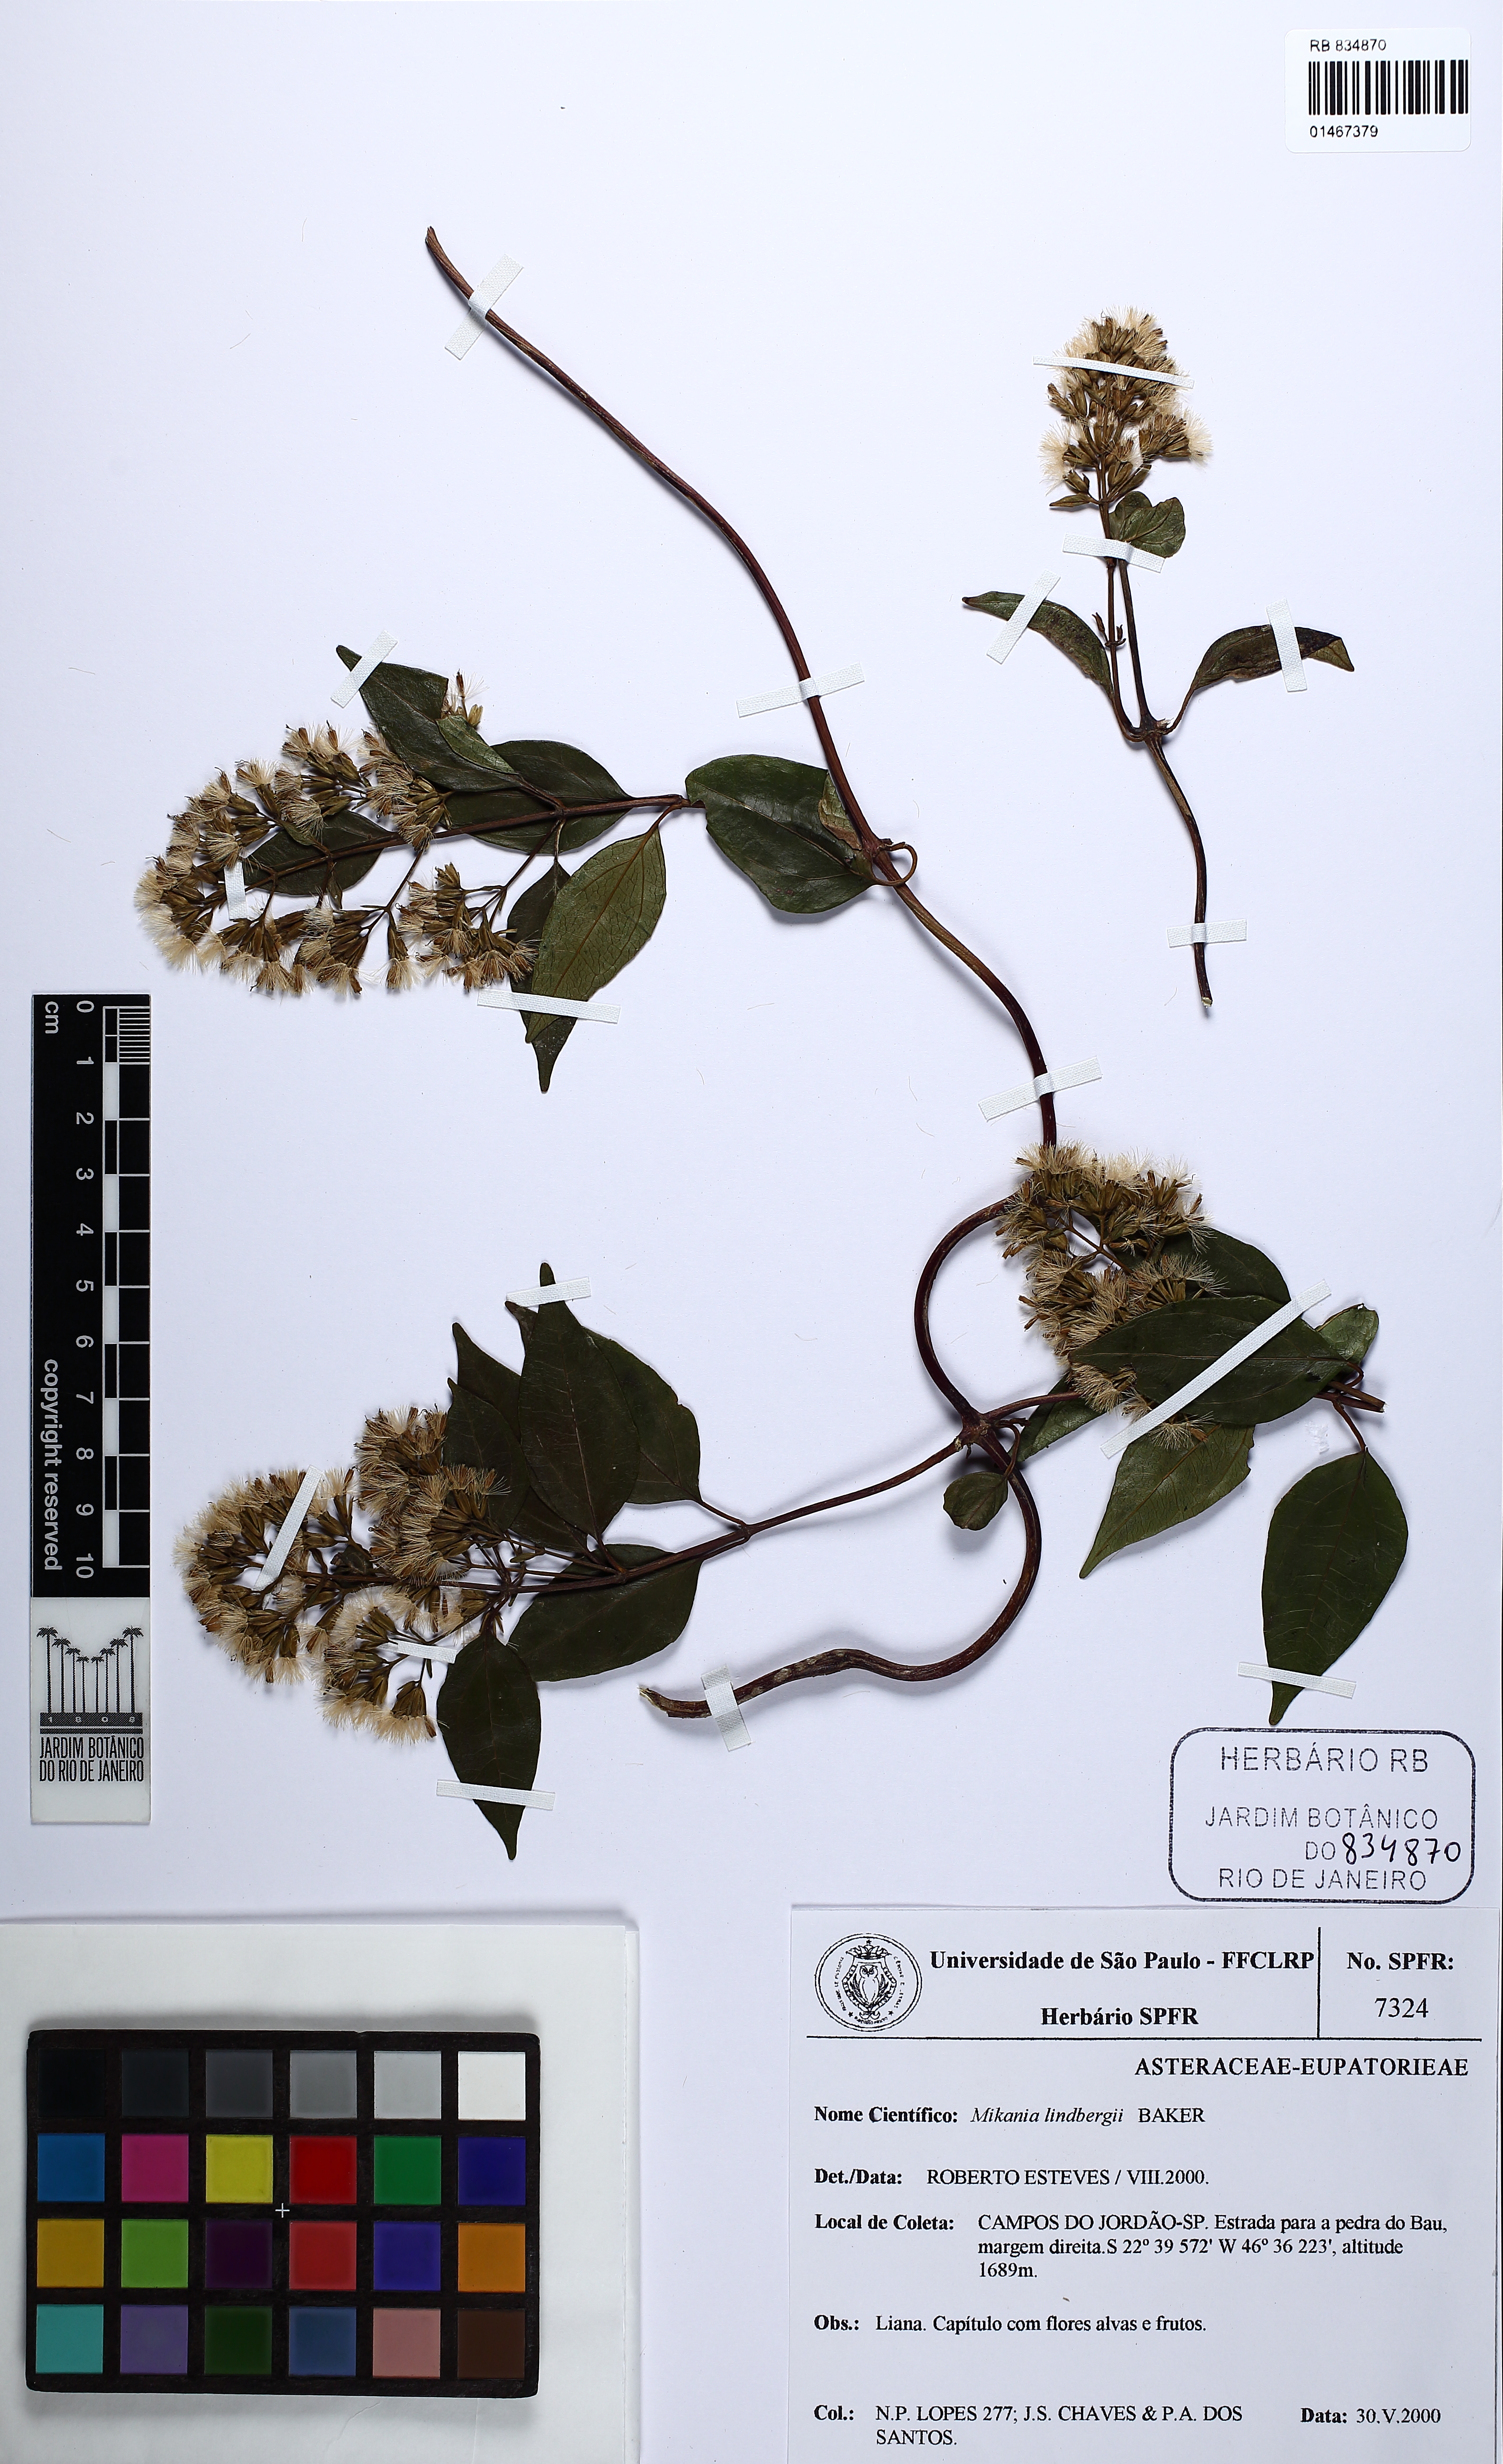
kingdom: Plantae
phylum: Tracheophyta
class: Magnoliopsida
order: Asterales
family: Asteraceae
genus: Mikania
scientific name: Mikania lindbergii
